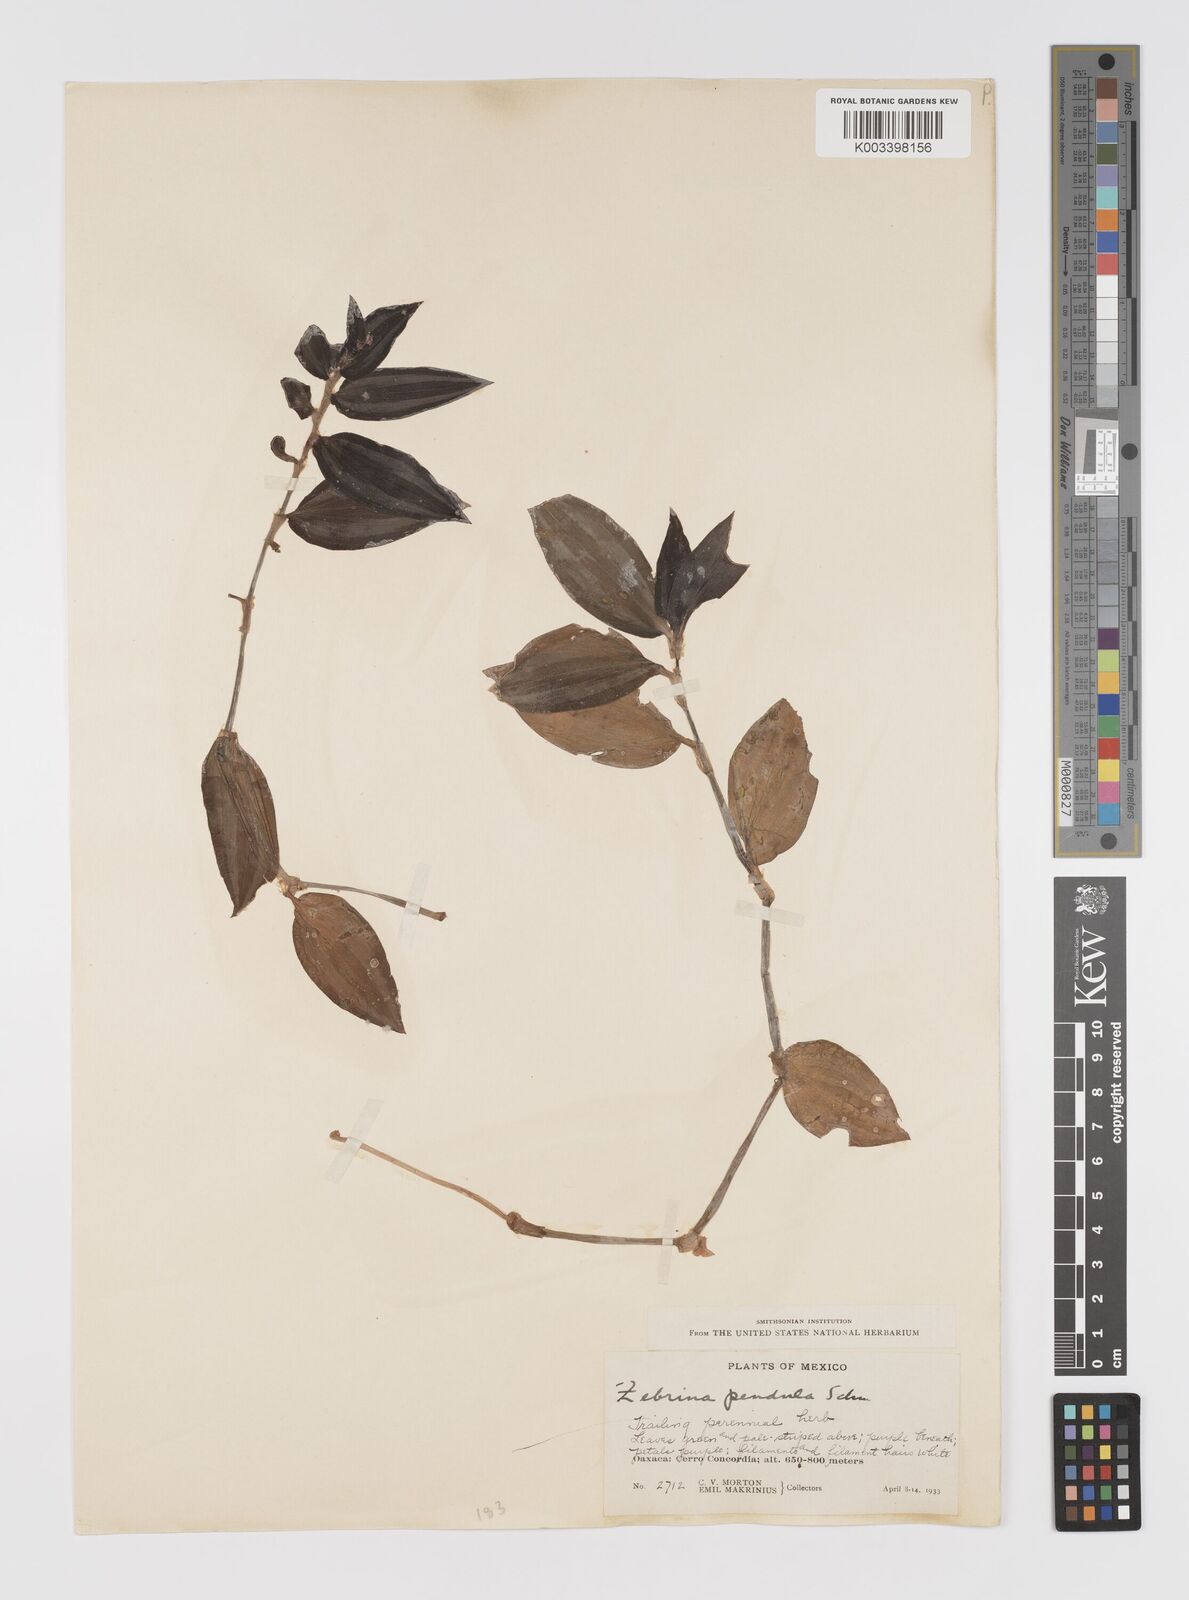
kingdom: Plantae
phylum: Tracheophyta
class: Liliopsida
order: Commelinales
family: Commelinaceae
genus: Tradescantia
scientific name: Tradescantia zebrina
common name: Inchplant
